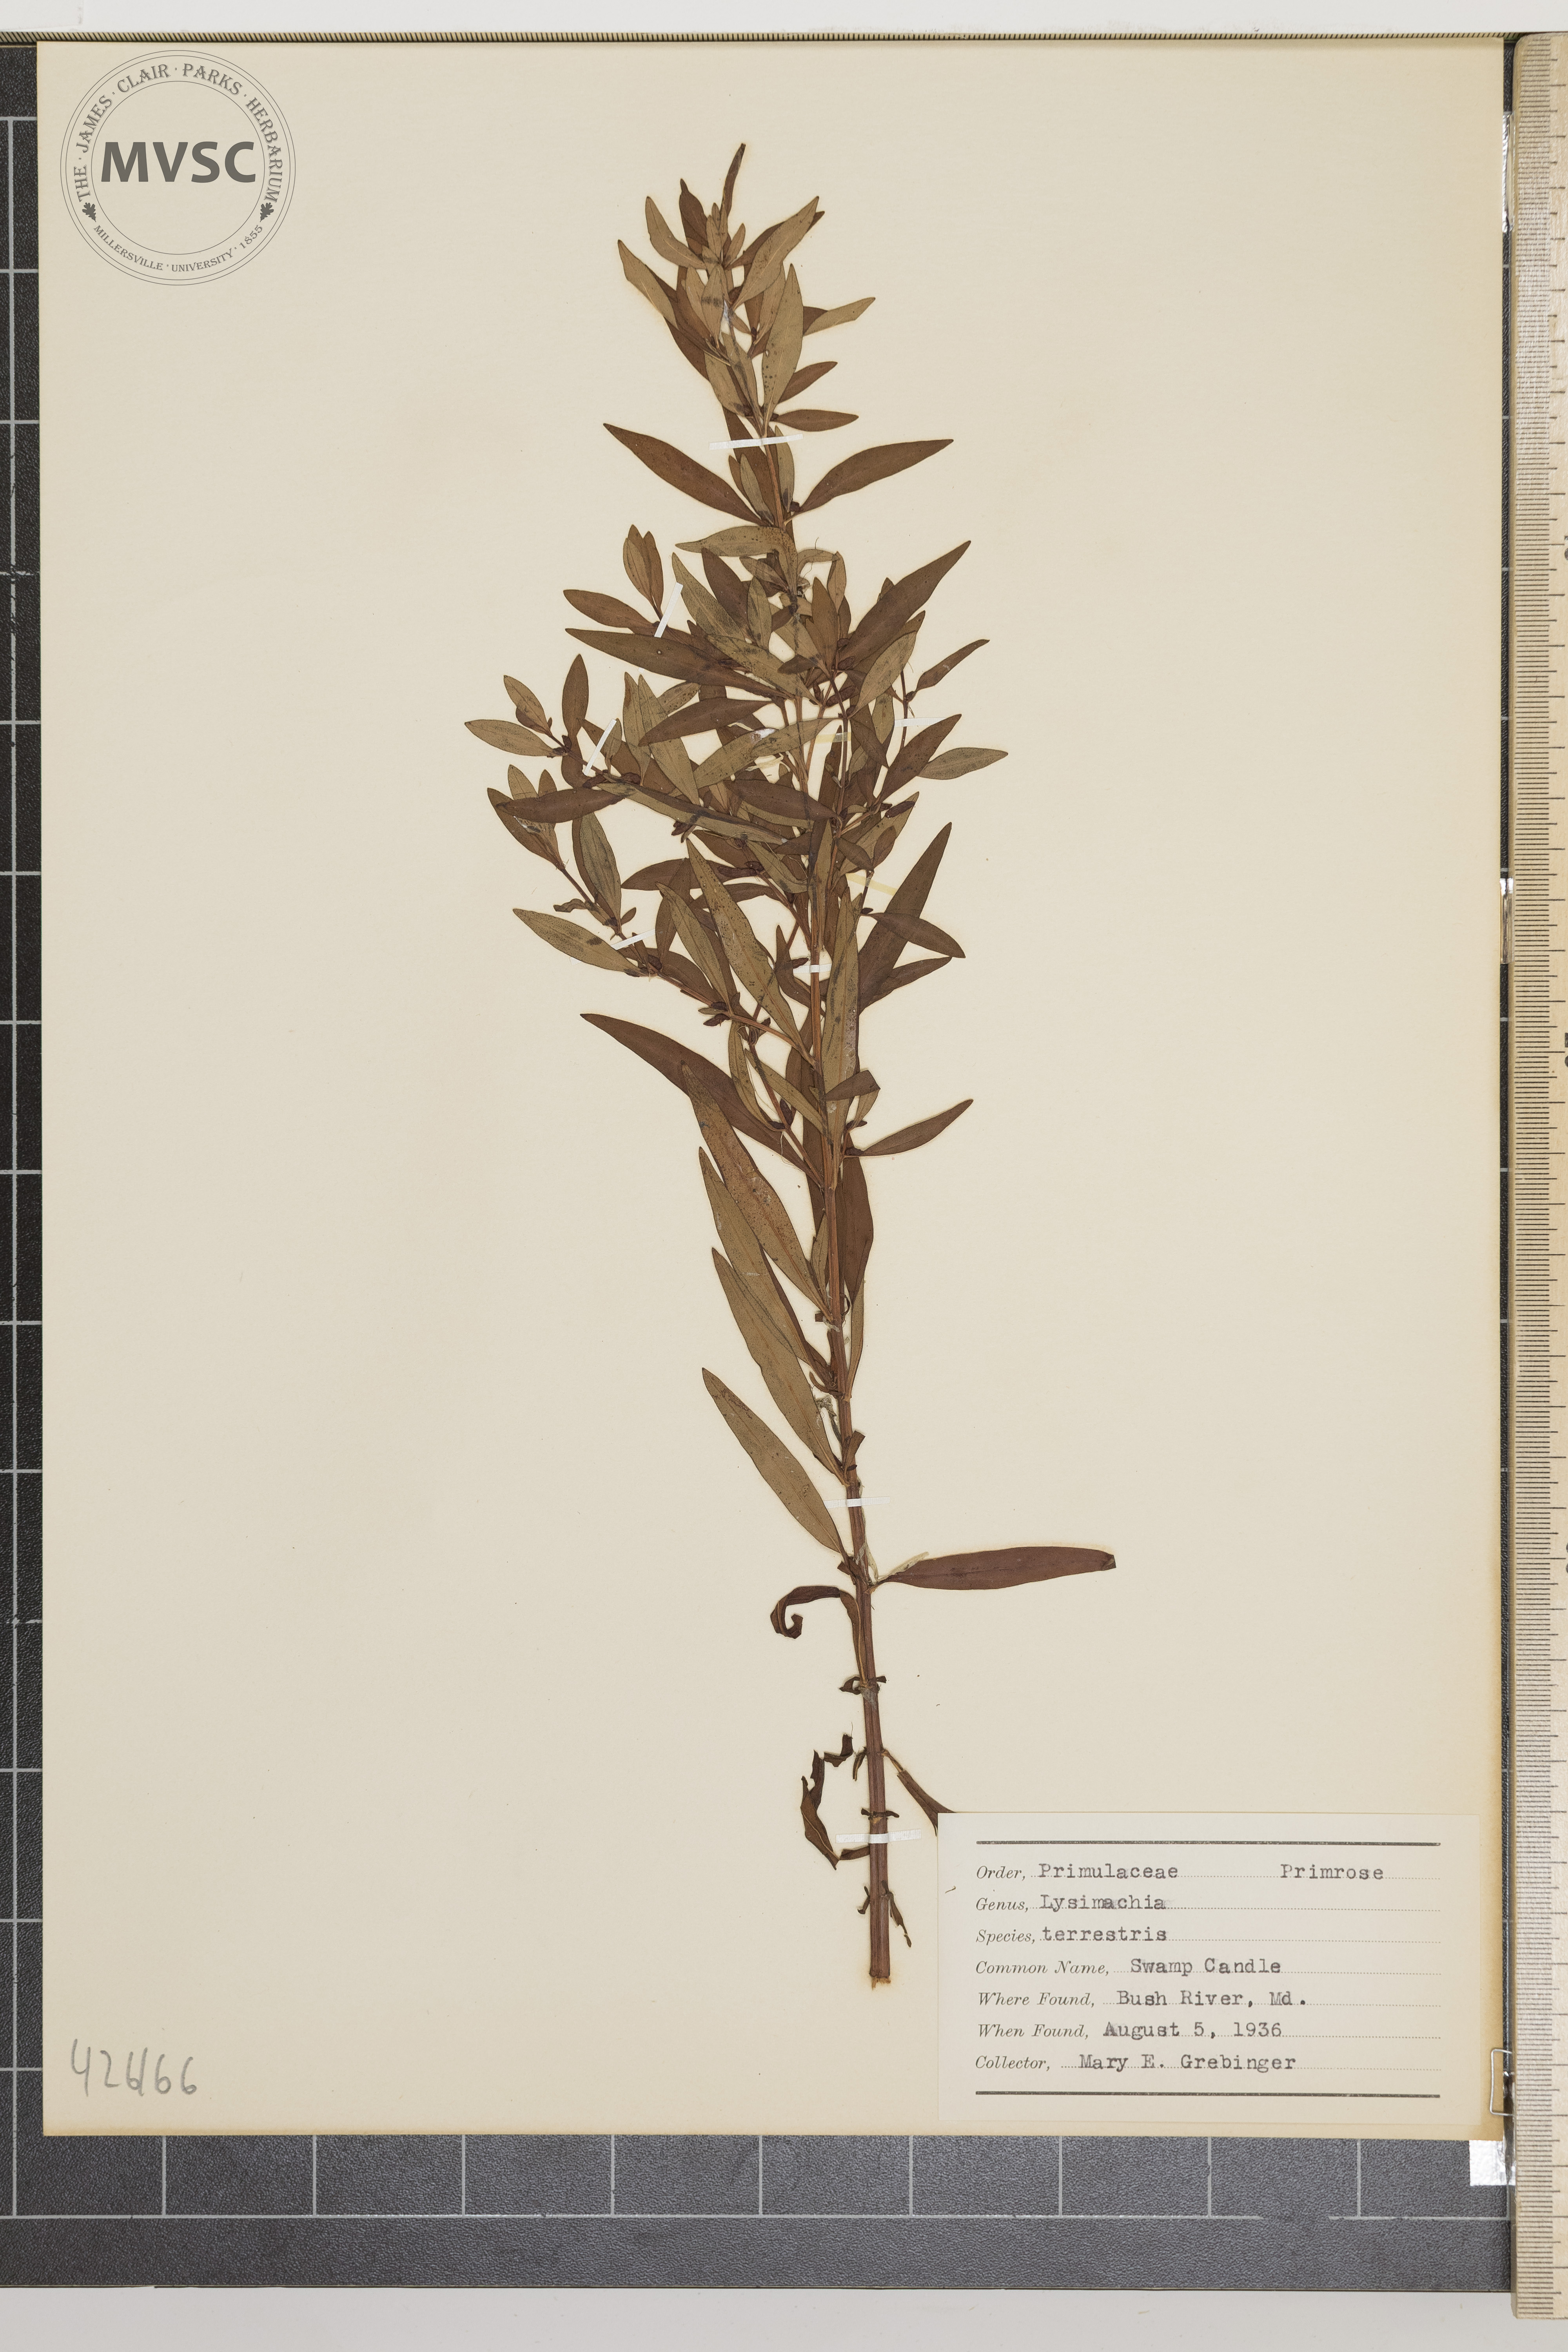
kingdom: Plantae
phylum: Tracheophyta
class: Magnoliopsida
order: Ericales
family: Primulaceae
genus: Lysimachia
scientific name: Lysimachia terrestris
